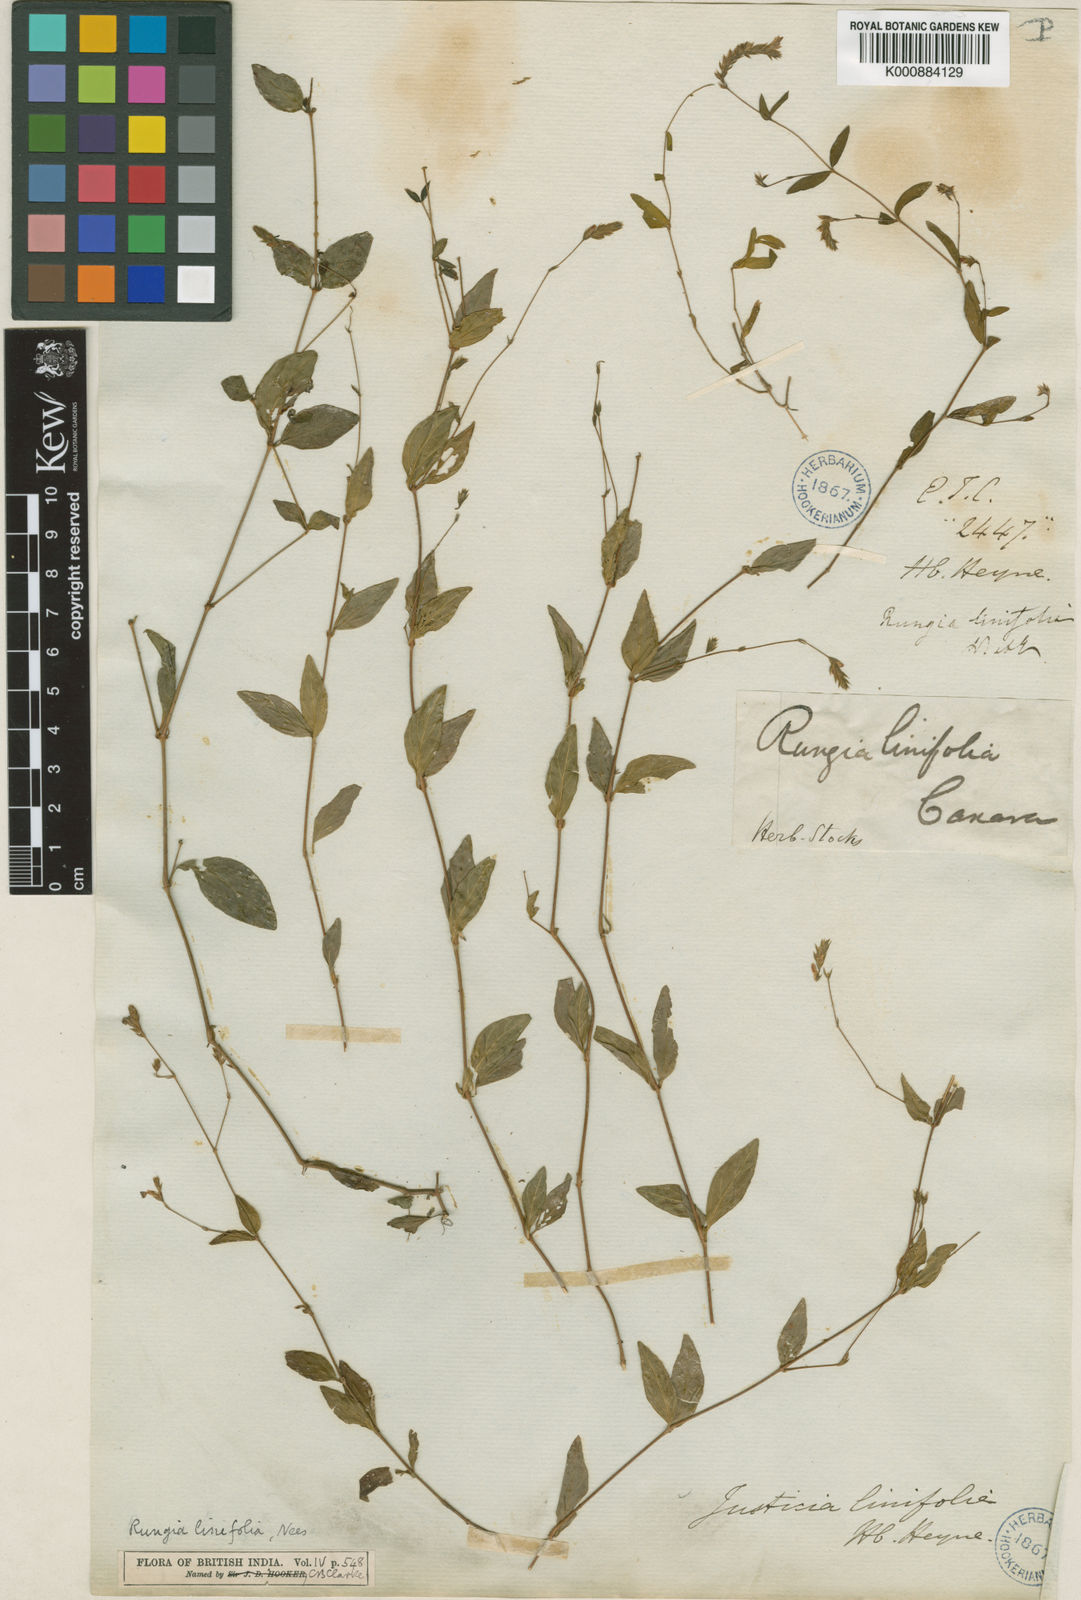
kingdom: Plantae
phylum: Tracheophyta
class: Magnoliopsida
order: Lamiales
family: Acanthaceae
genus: Rungia
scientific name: Rungia linifolia
